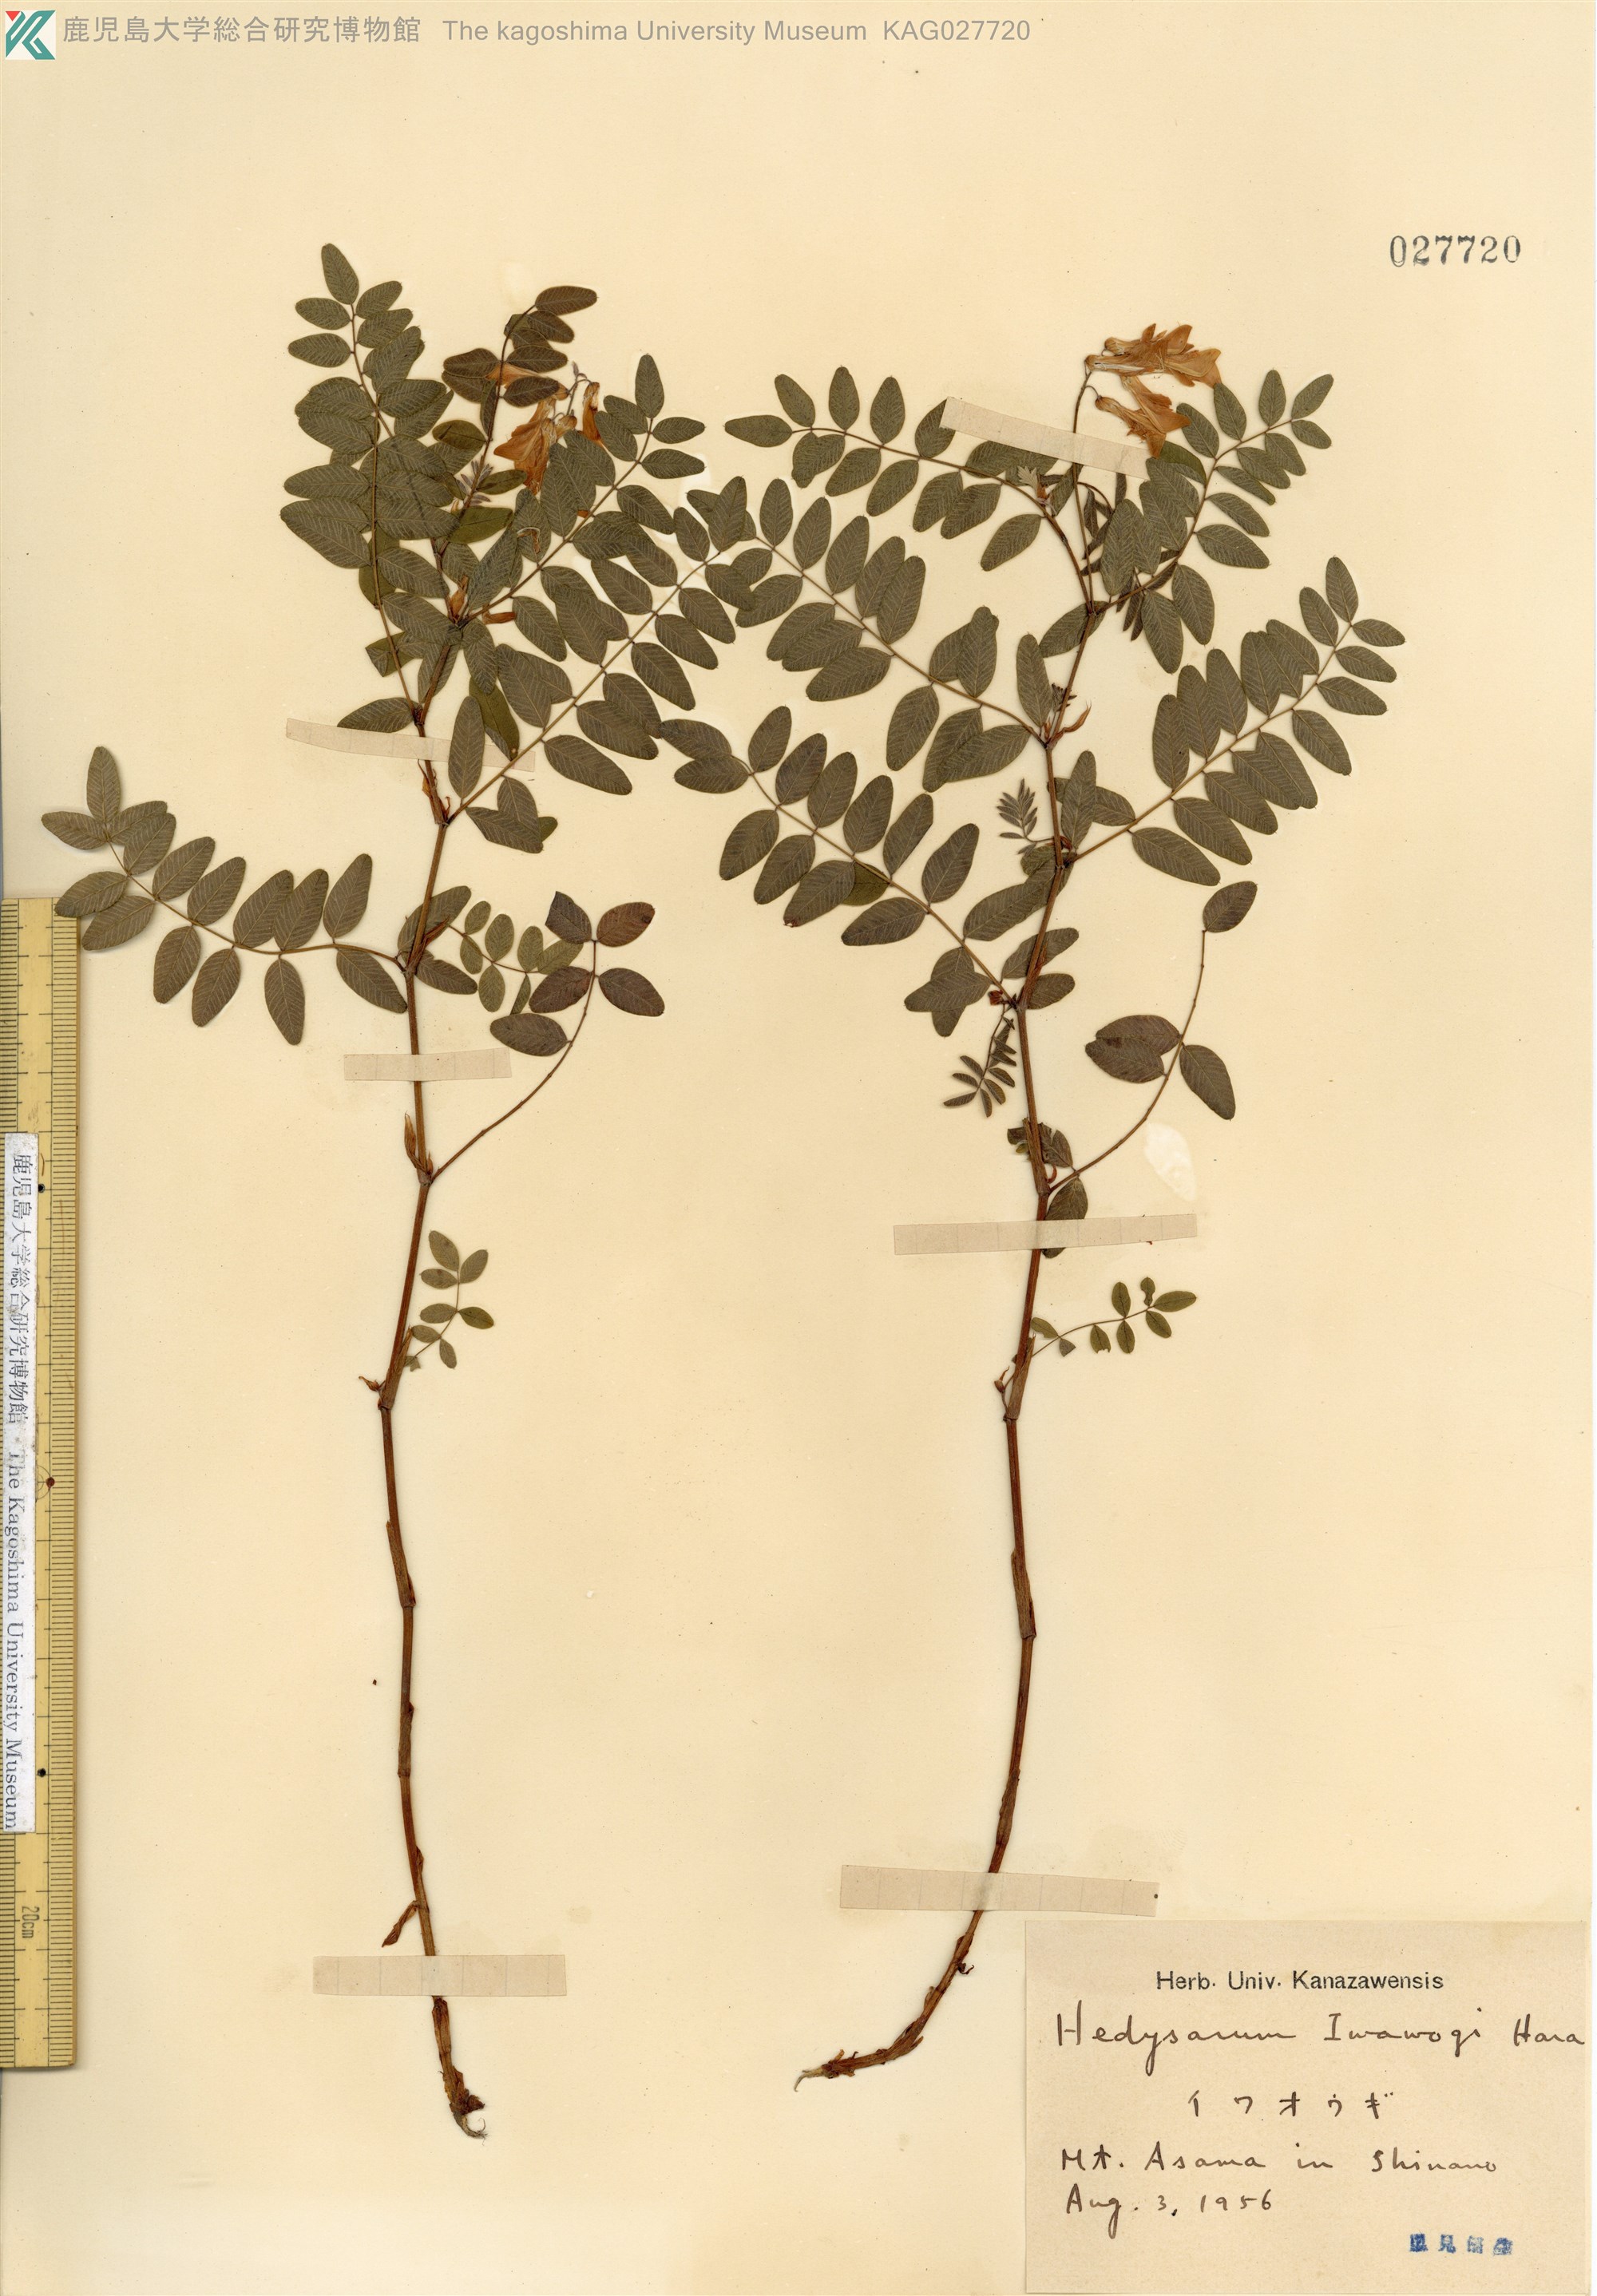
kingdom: Plantae
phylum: Tracheophyta
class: Magnoliopsida
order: Fabales
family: Fabaceae
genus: Hedysarum
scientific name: Hedysarum vicioides
